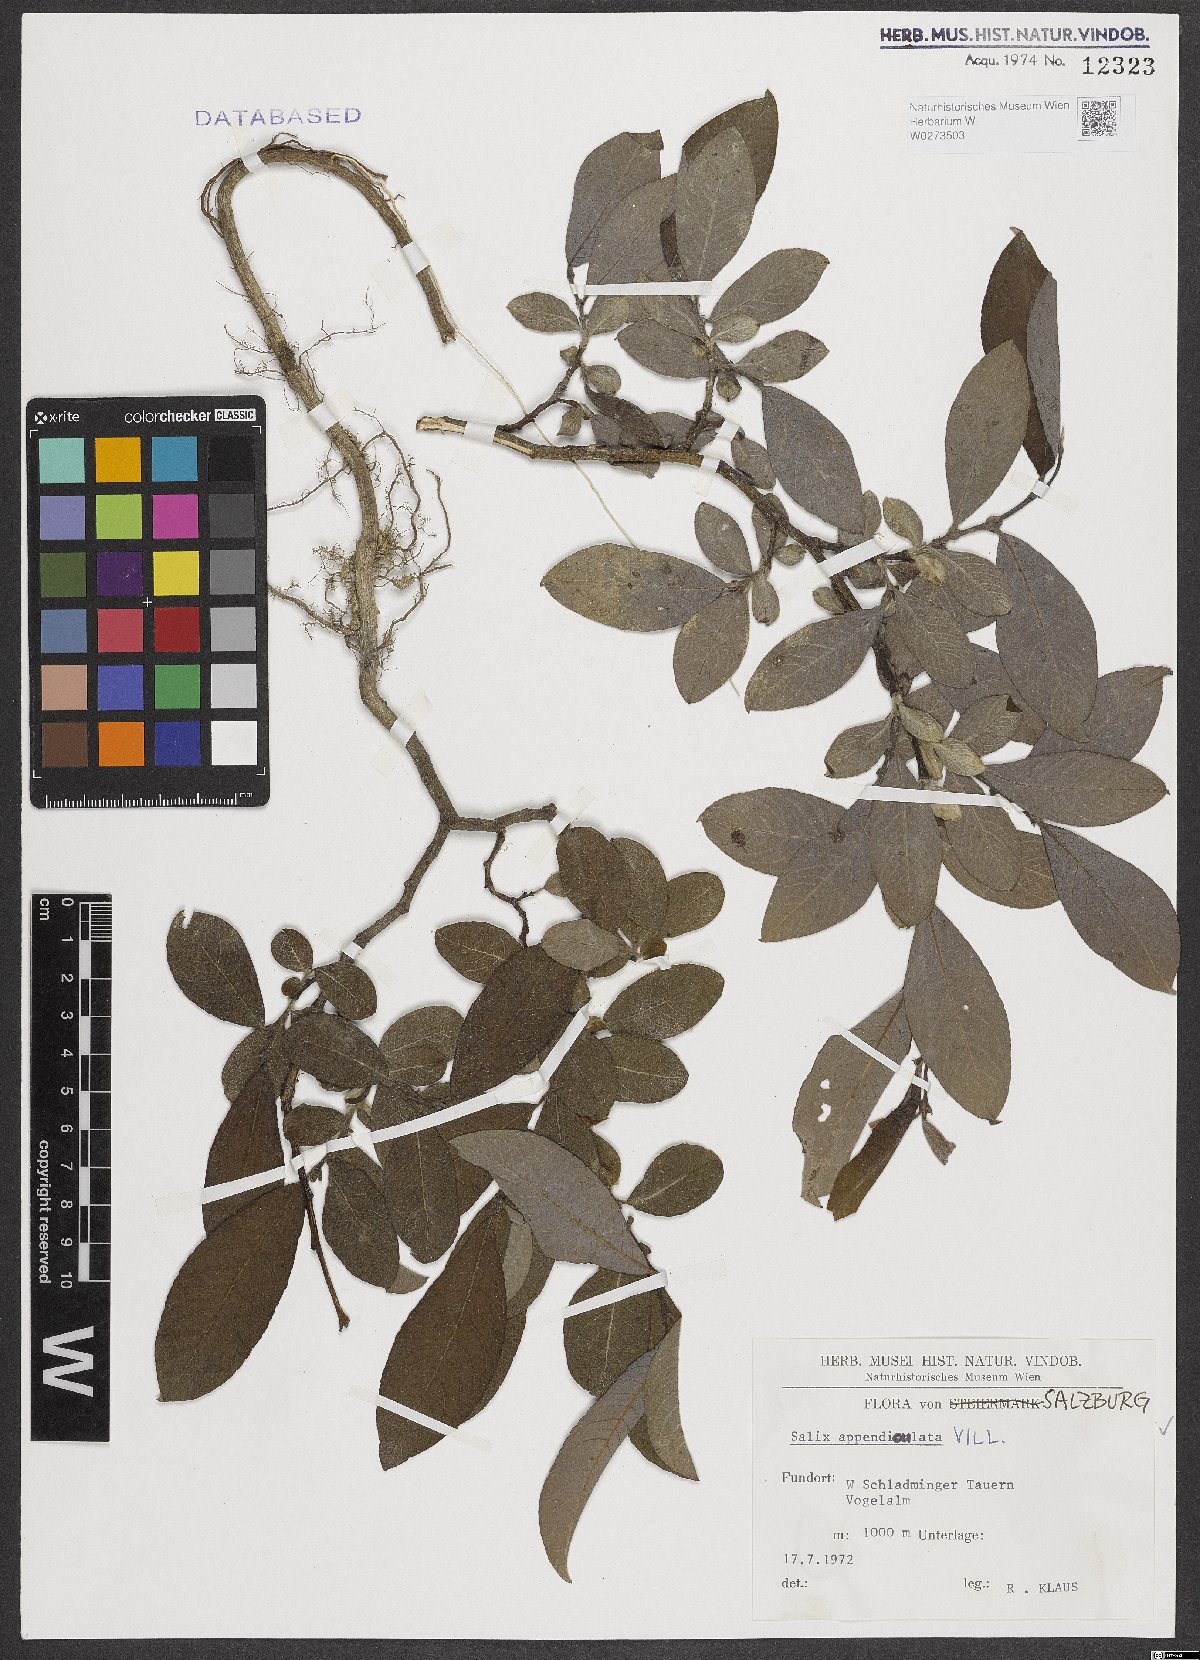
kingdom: Plantae
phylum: Tracheophyta
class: Magnoliopsida
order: Malpighiales
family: Salicaceae
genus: Salix
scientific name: Salix appendiculata
